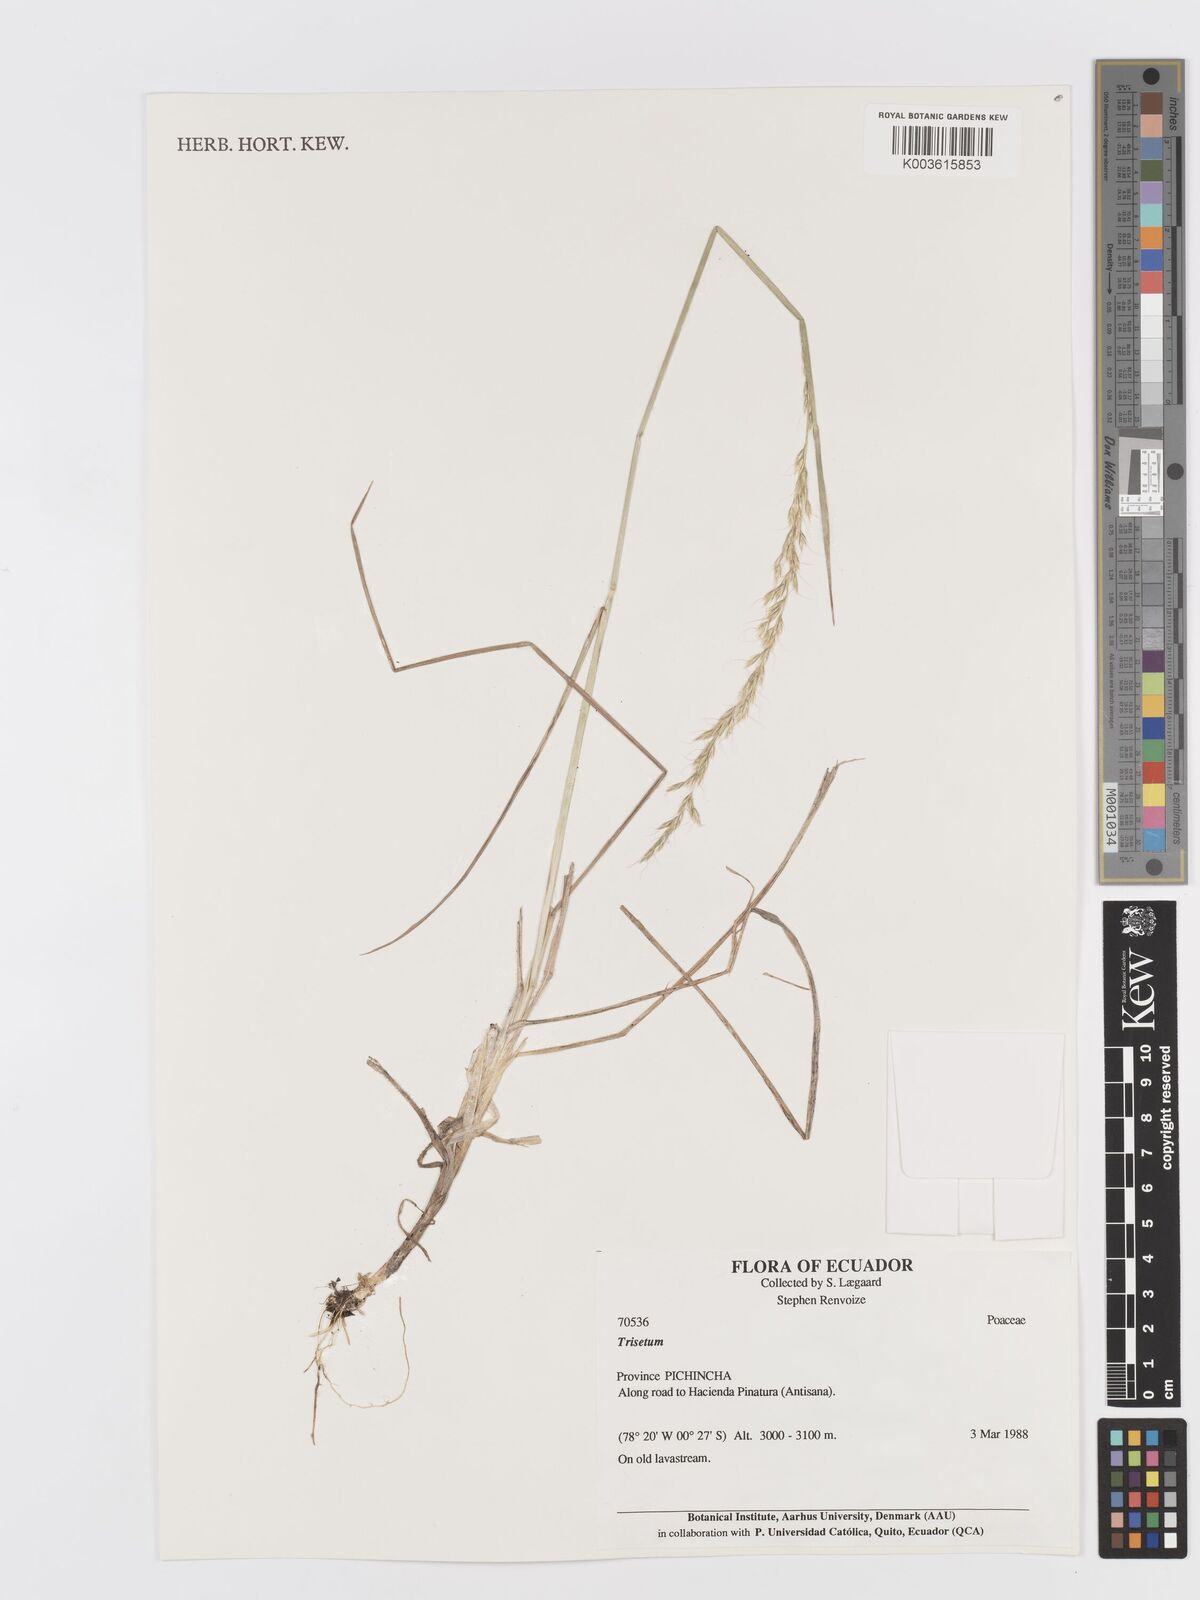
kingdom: Plantae
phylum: Tracheophyta
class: Liliopsida
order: Poales
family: Poaceae
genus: Peyritschia
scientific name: Peyritschia irazuensis
